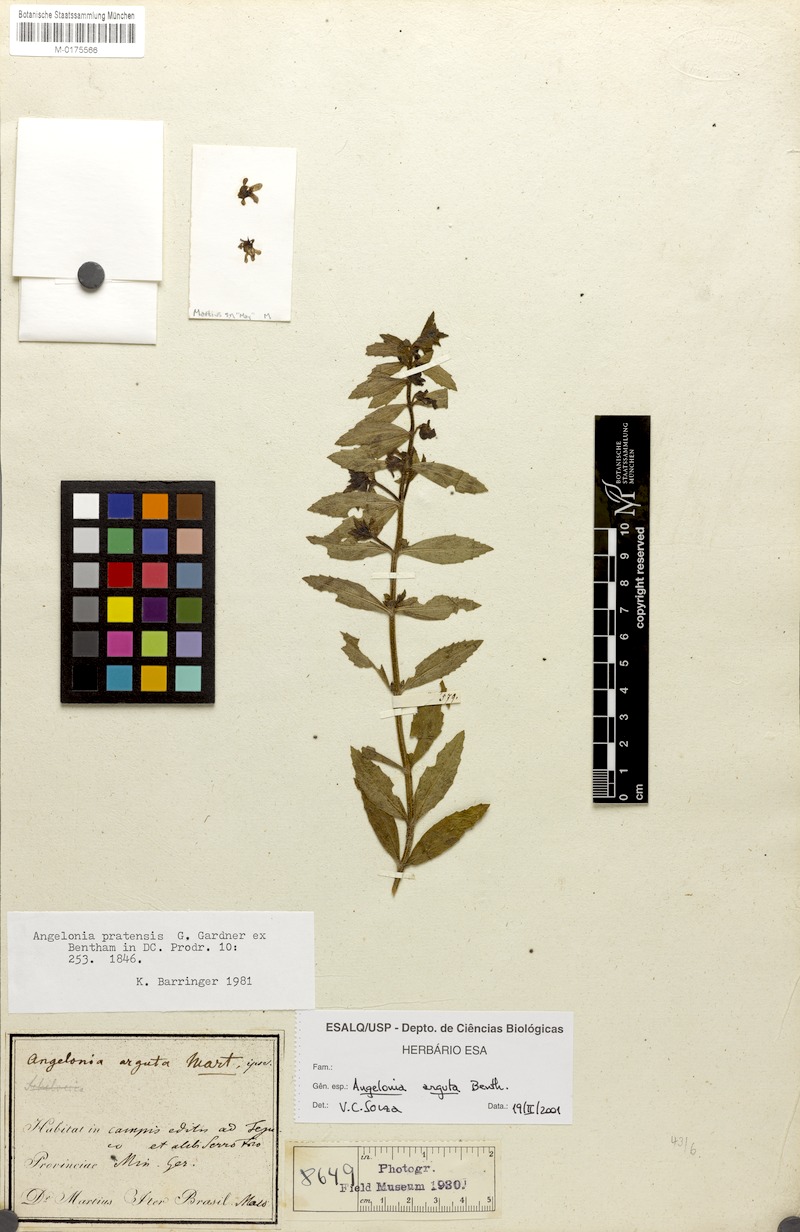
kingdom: Plantae
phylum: Tracheophyta
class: Magnoliopsida
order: Lamiales
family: Plantaginaceae
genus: Angelonia
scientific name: Angelonia arguta
